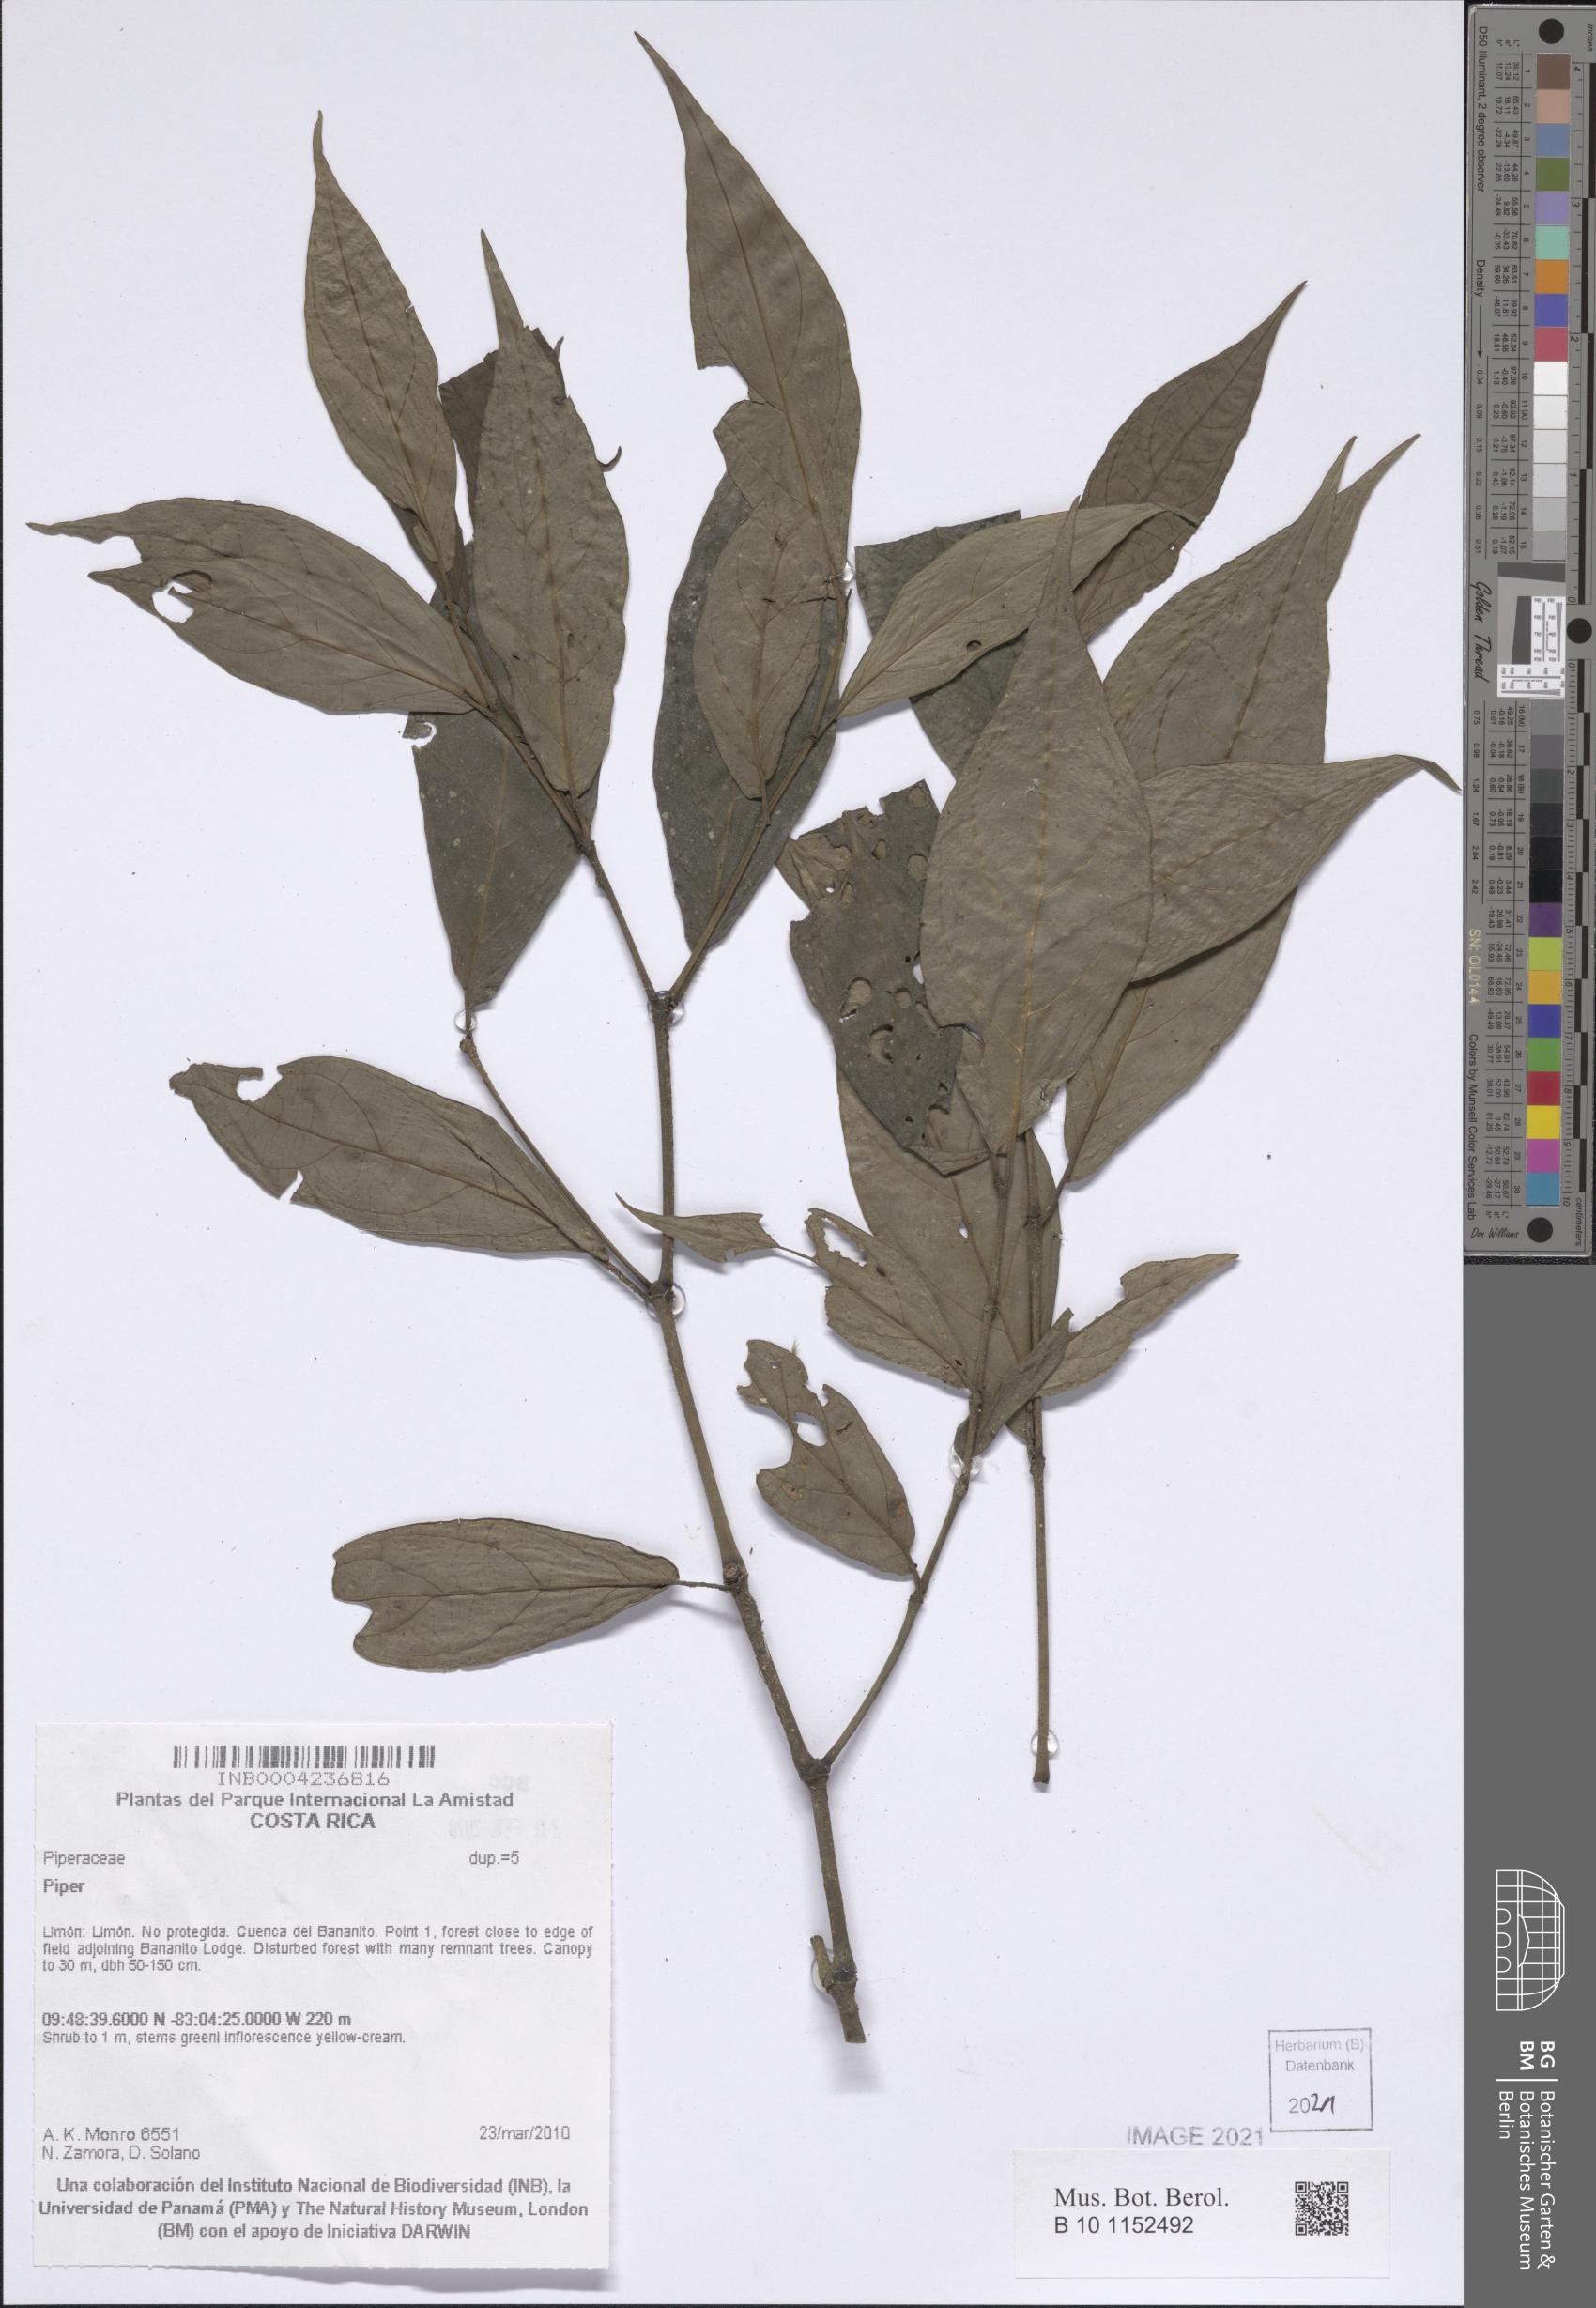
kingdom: Plantae
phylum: Tracheophyta
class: Magnoliopsida
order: Piperales
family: Piperaceae
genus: Piper
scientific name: Piper
